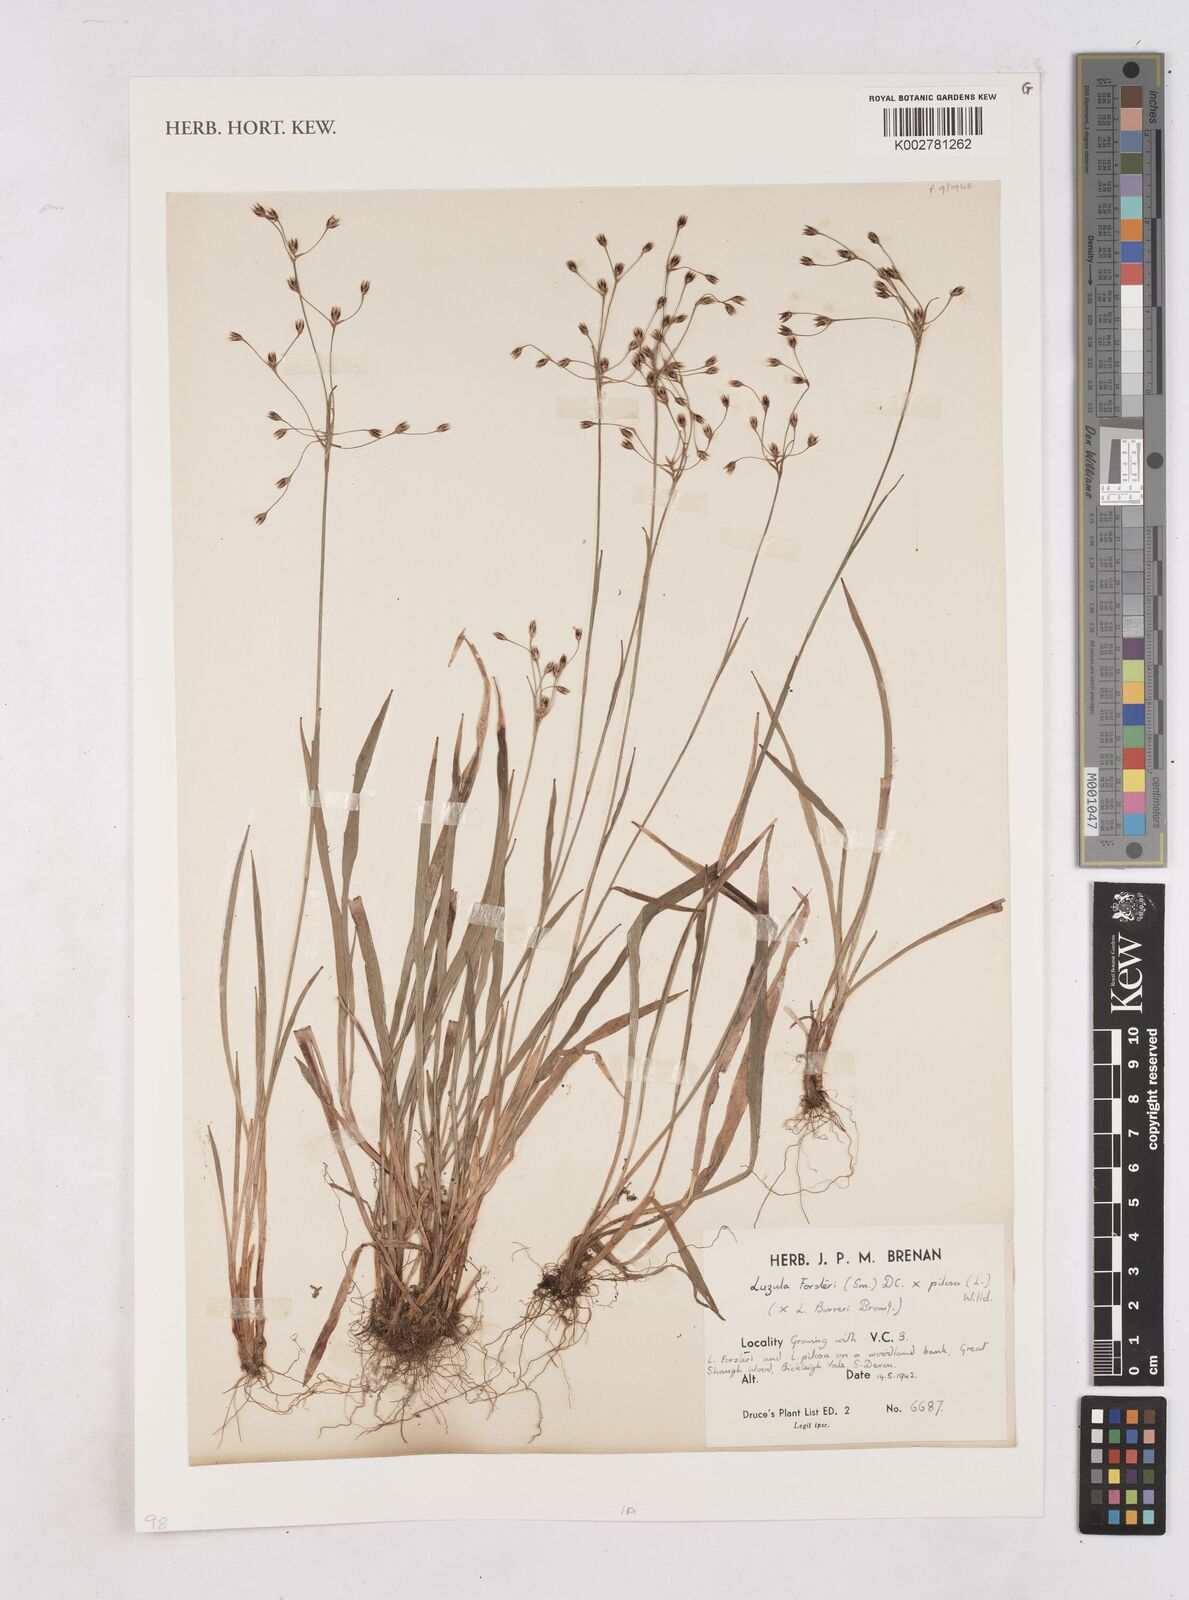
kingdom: Plantae
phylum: Tracheophyta
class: Liliopsida
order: Poales
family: Juncaceae
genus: Luzula
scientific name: Luzula borreri
